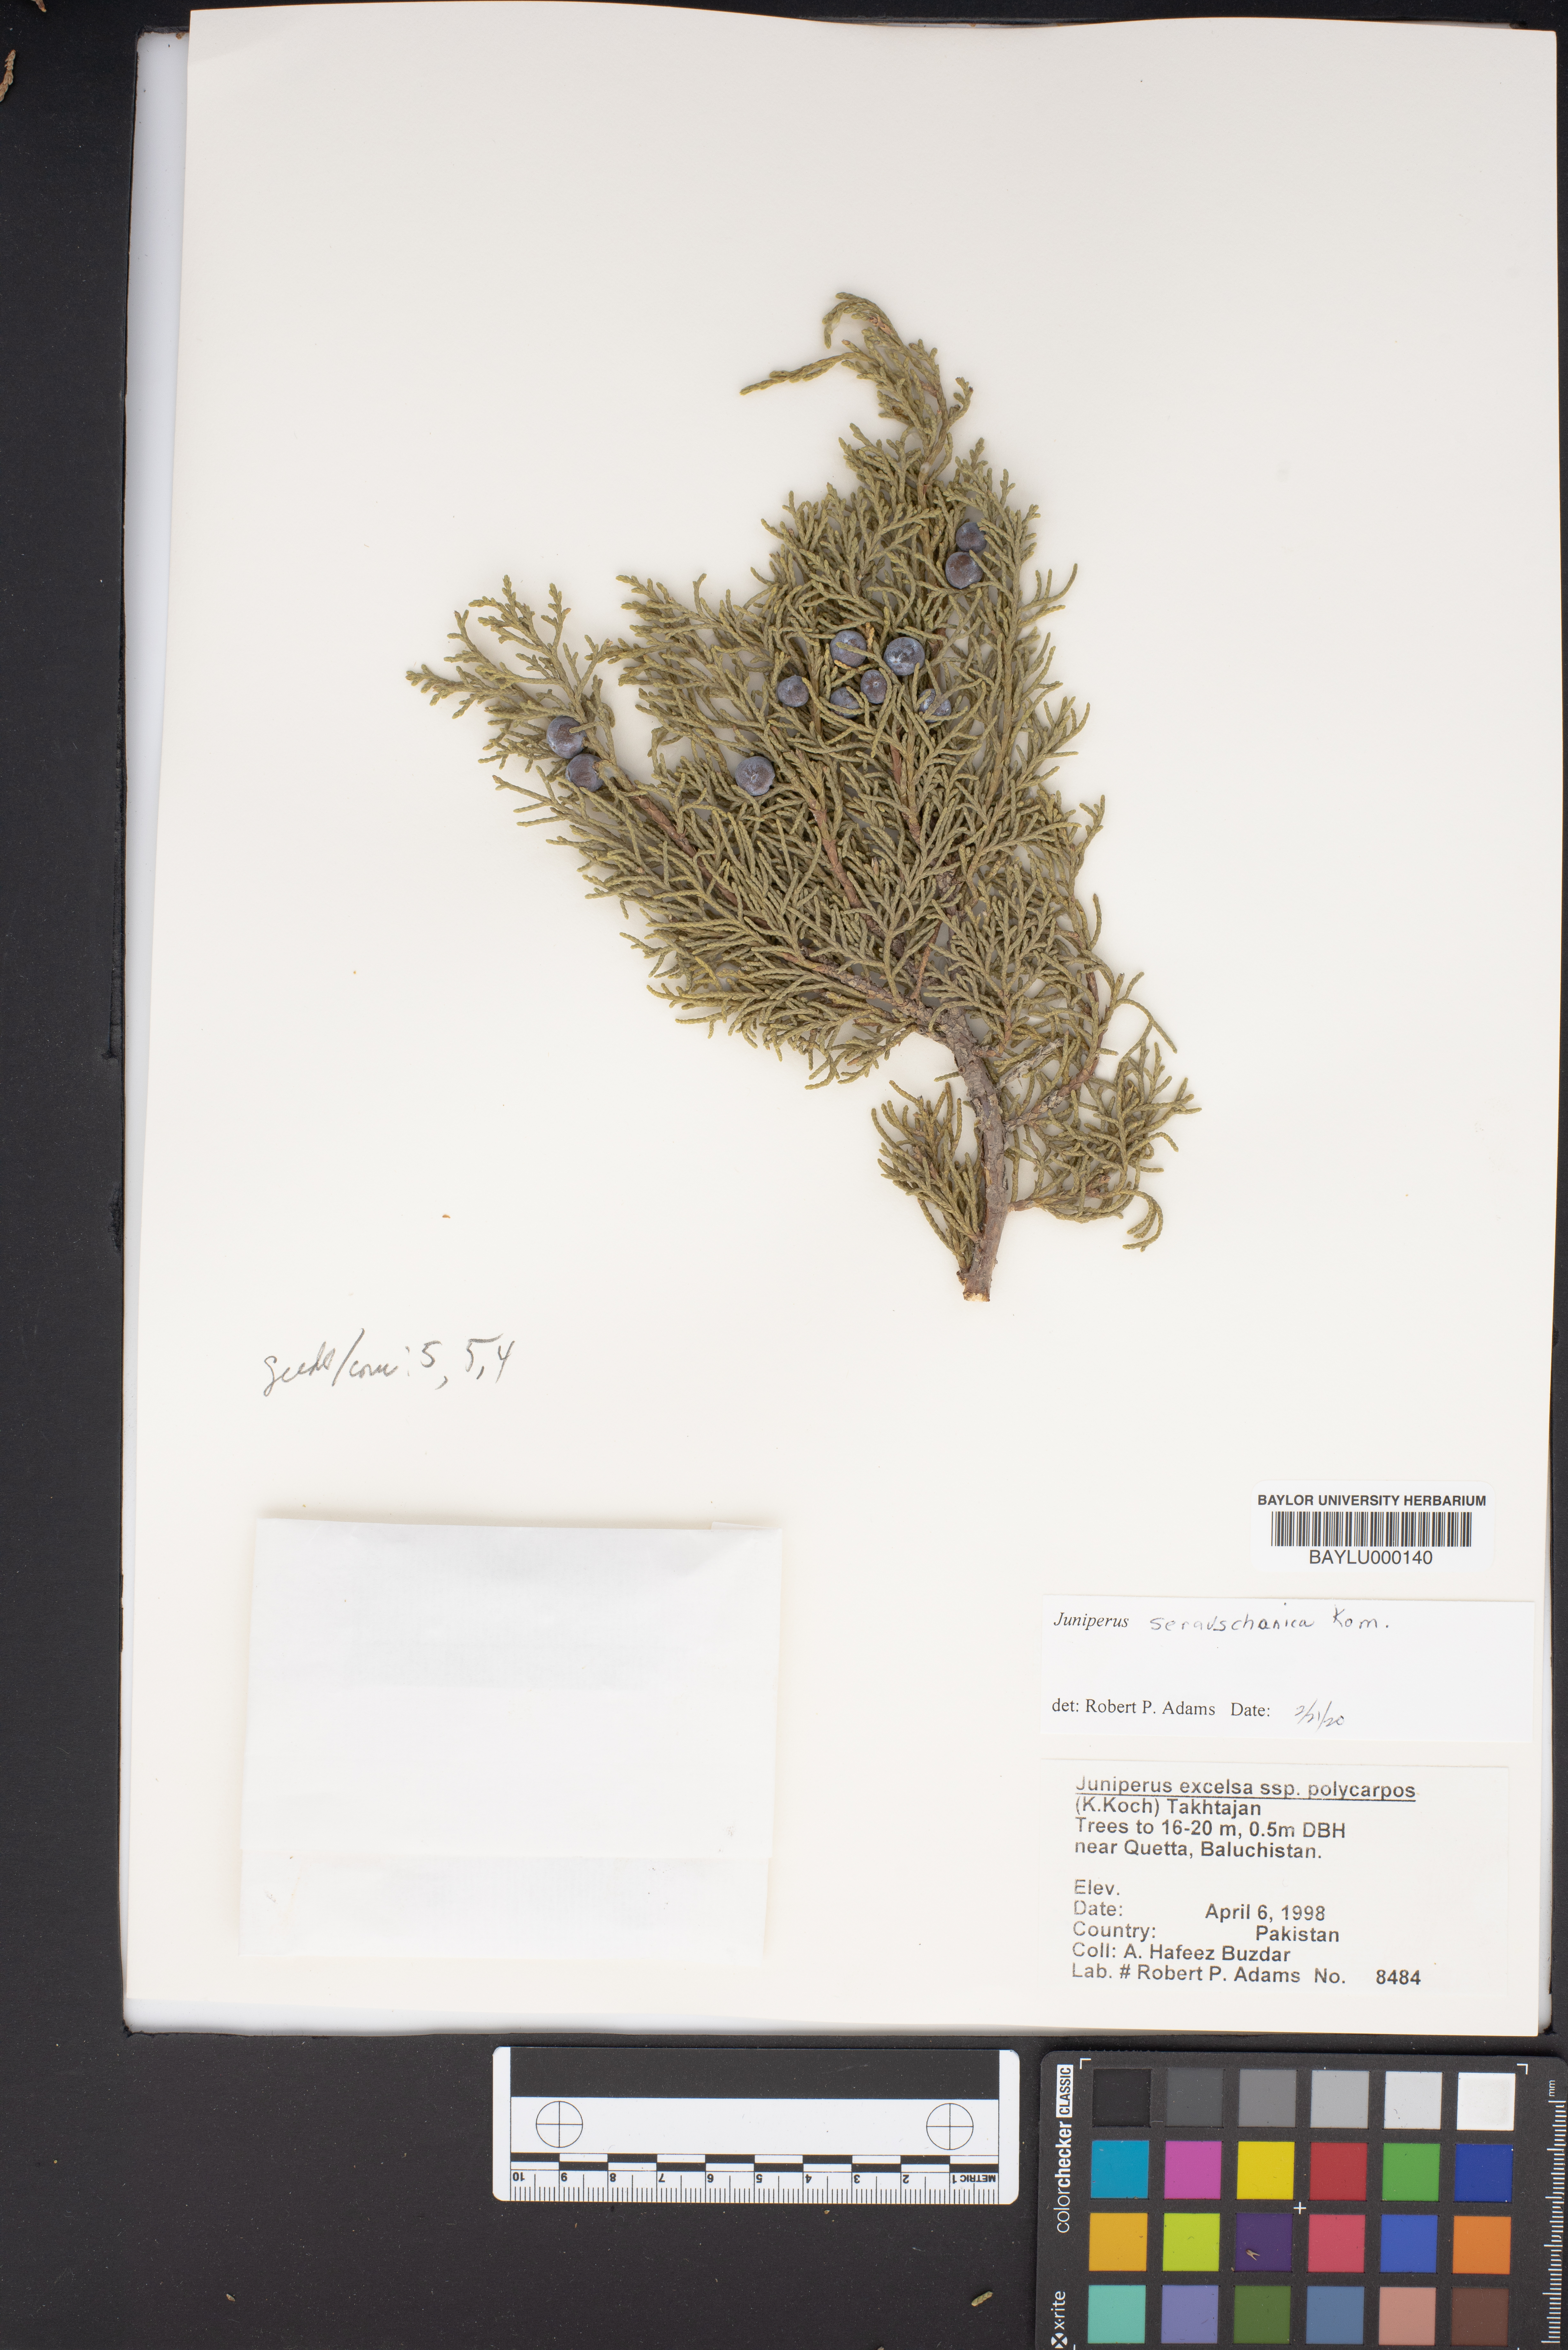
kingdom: Plantae
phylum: Tracheophyta
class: Pinopsida
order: Pinales
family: Cupressaceae
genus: Juniperus
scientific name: Juniperus excelsa
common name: Crimean juniper
